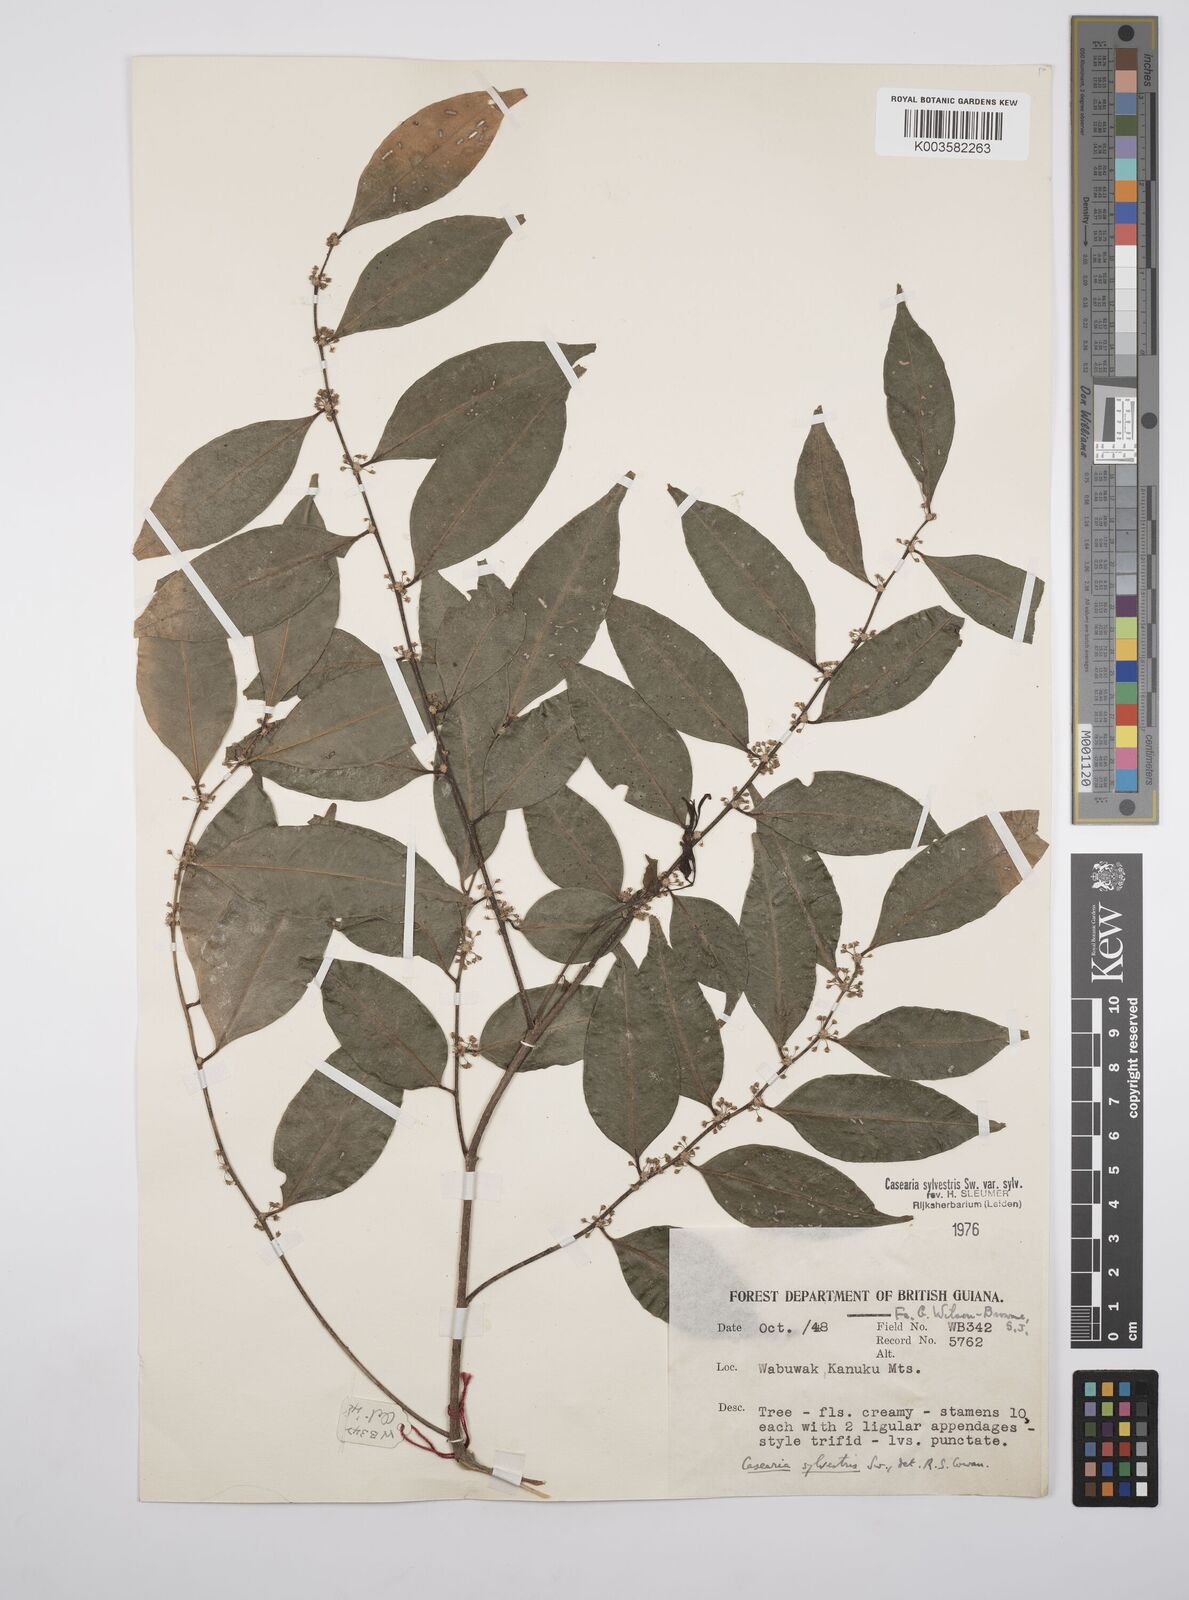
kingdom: Plantae
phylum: Tracheophyta
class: Magnoliopsida
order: Malpighiales
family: Salicaceae
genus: Casearia
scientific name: Casearia sylvestris
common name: Wild sage
